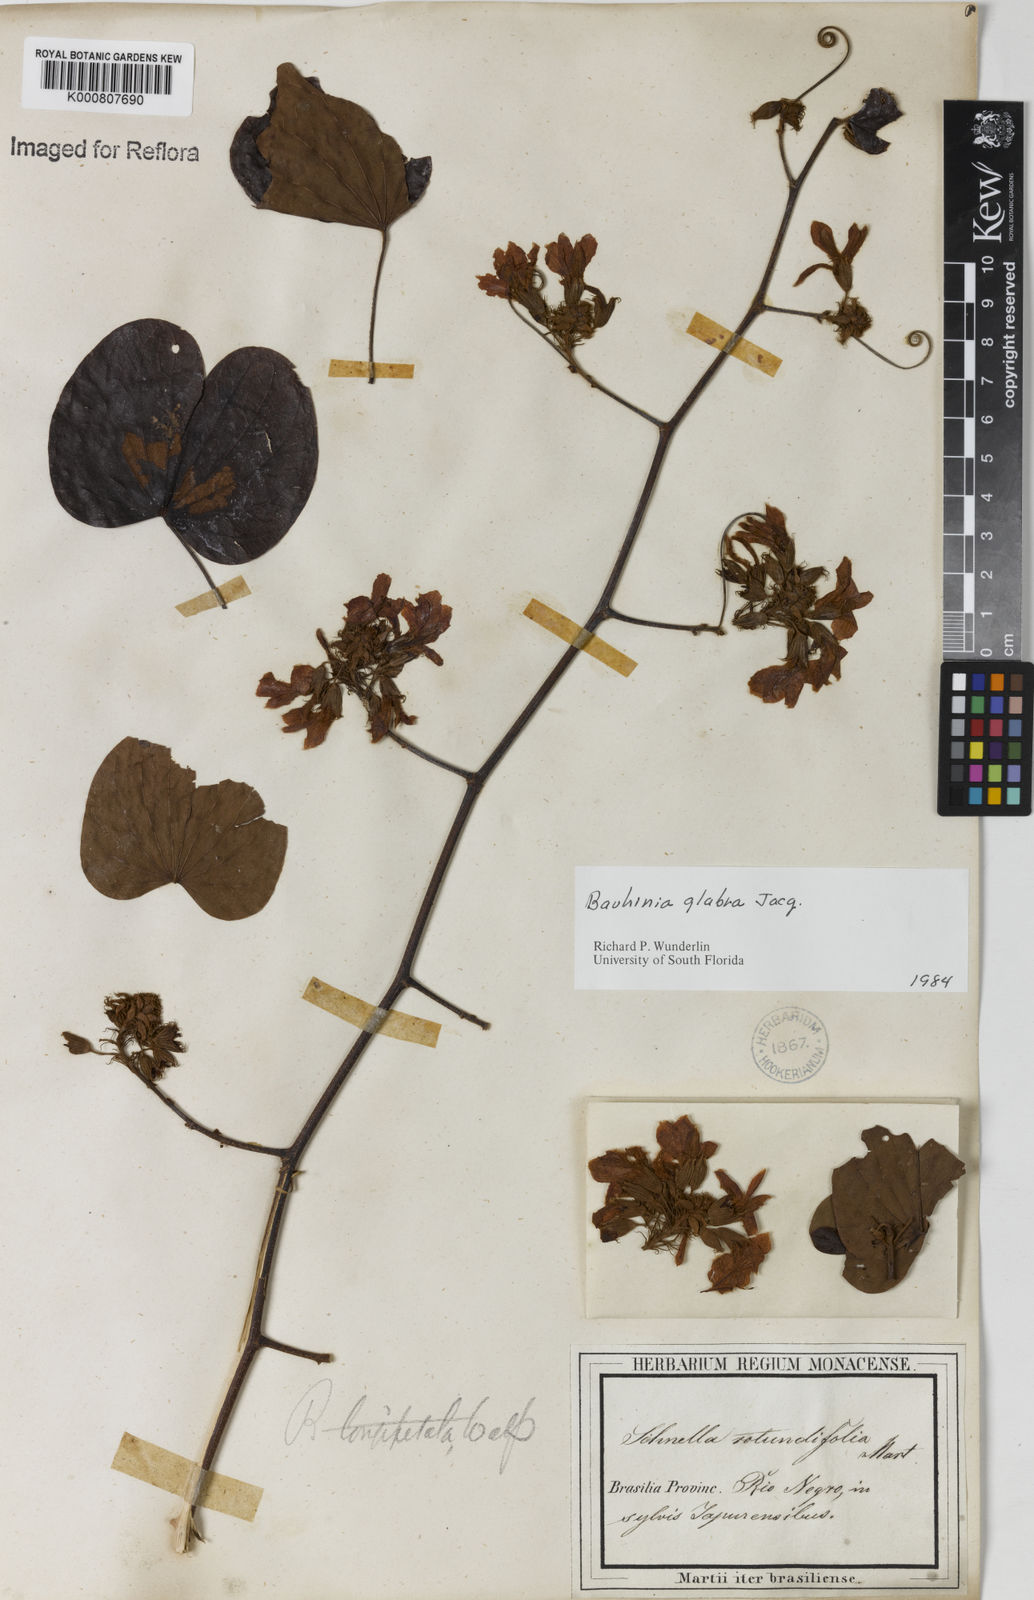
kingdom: Plantae
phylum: Tracheophyta
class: Magnoliopsida
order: Fabales
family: Fabaceae
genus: Schnella
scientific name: Schnella glabra
